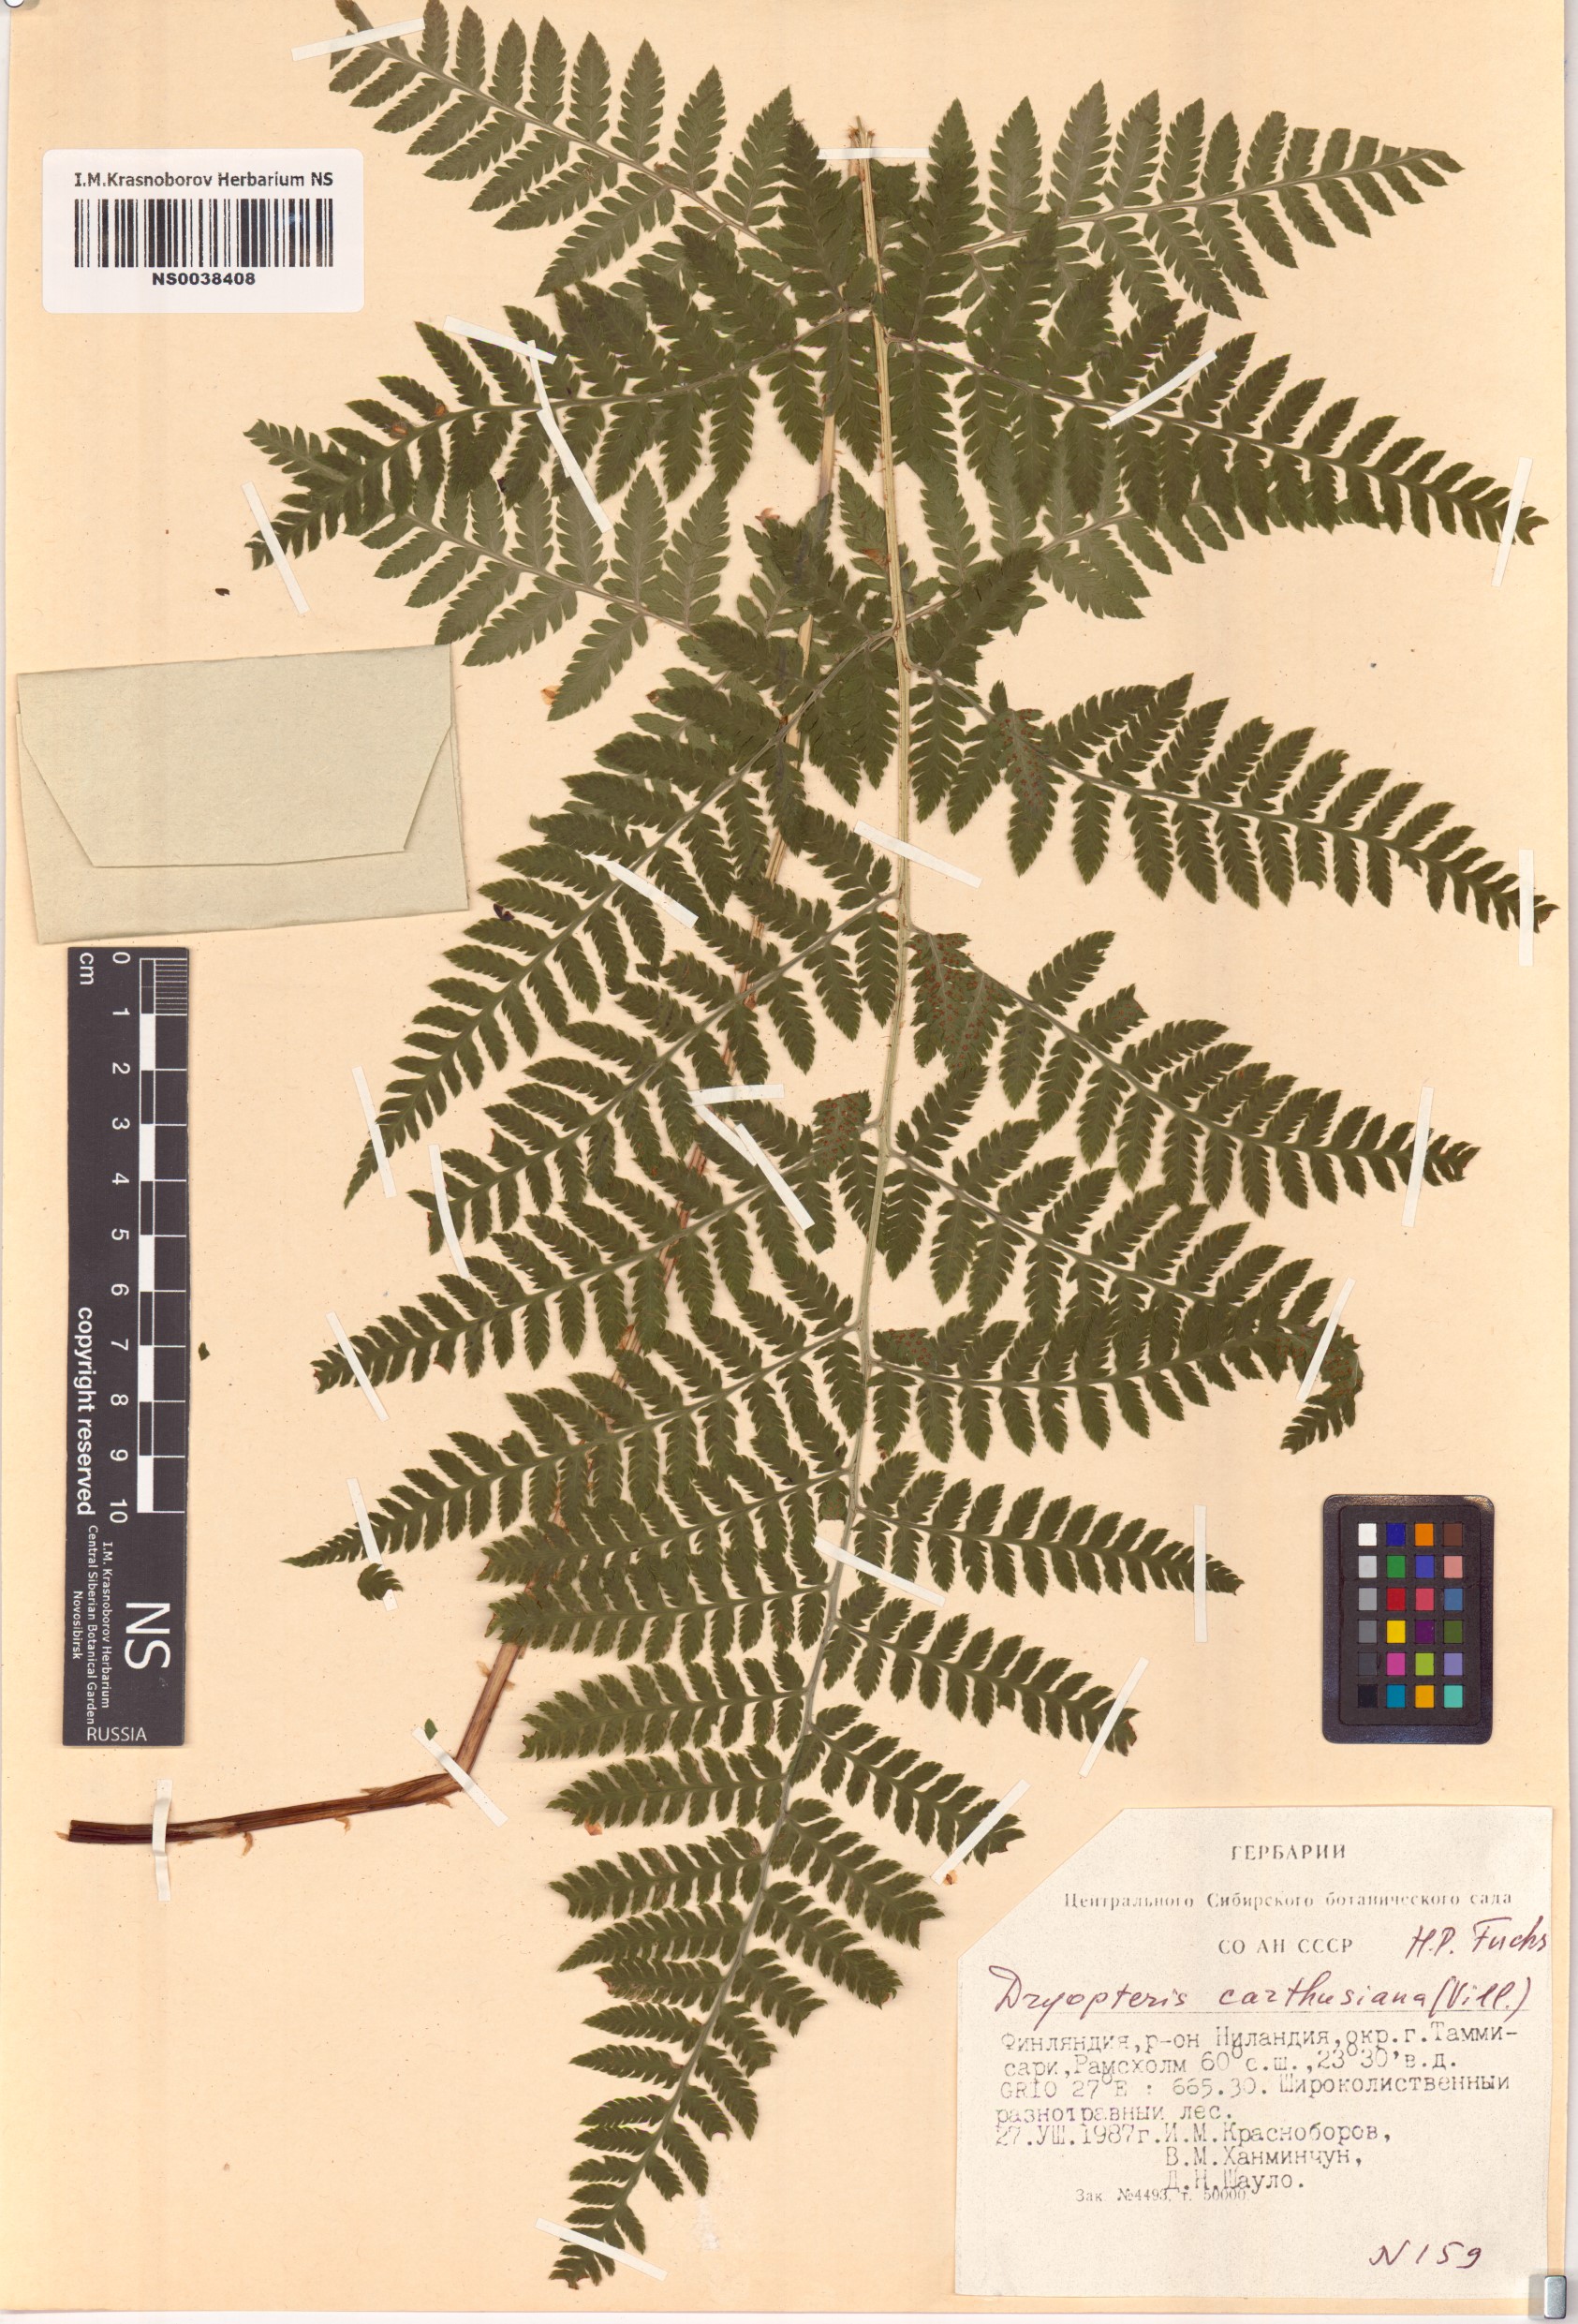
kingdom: Plantae
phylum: Tracheophyta
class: Polypodiopsida
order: Polypodiales
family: Dryopteridaceae
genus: Dryopteris
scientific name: Dryopteris carthusiana
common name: Narrow buckler-fern
